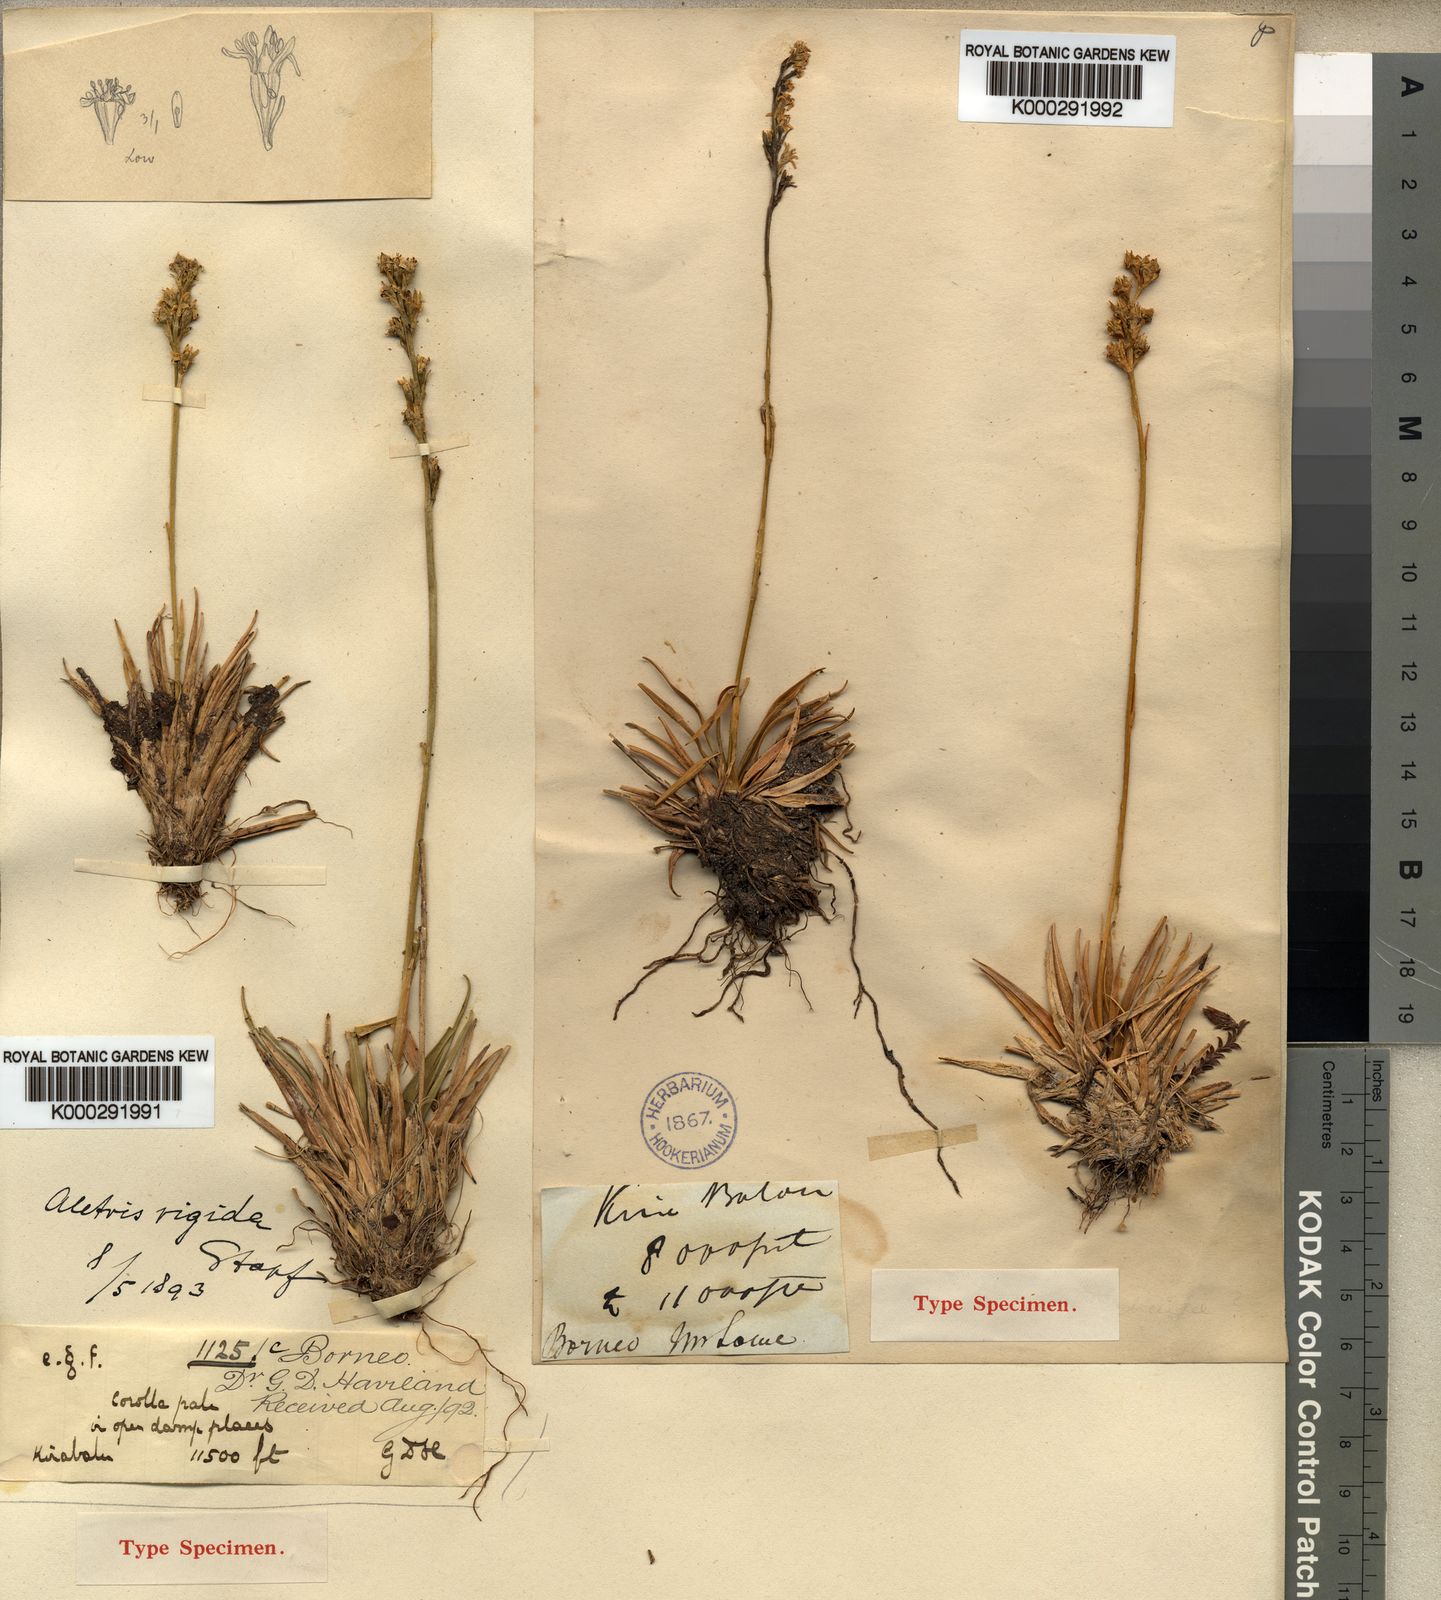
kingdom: Plantae
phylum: Tracheophyta
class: Liliopsida
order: Dioscoreales
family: Nartheciaceae
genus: Aletris
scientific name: Aletris foliolosa
